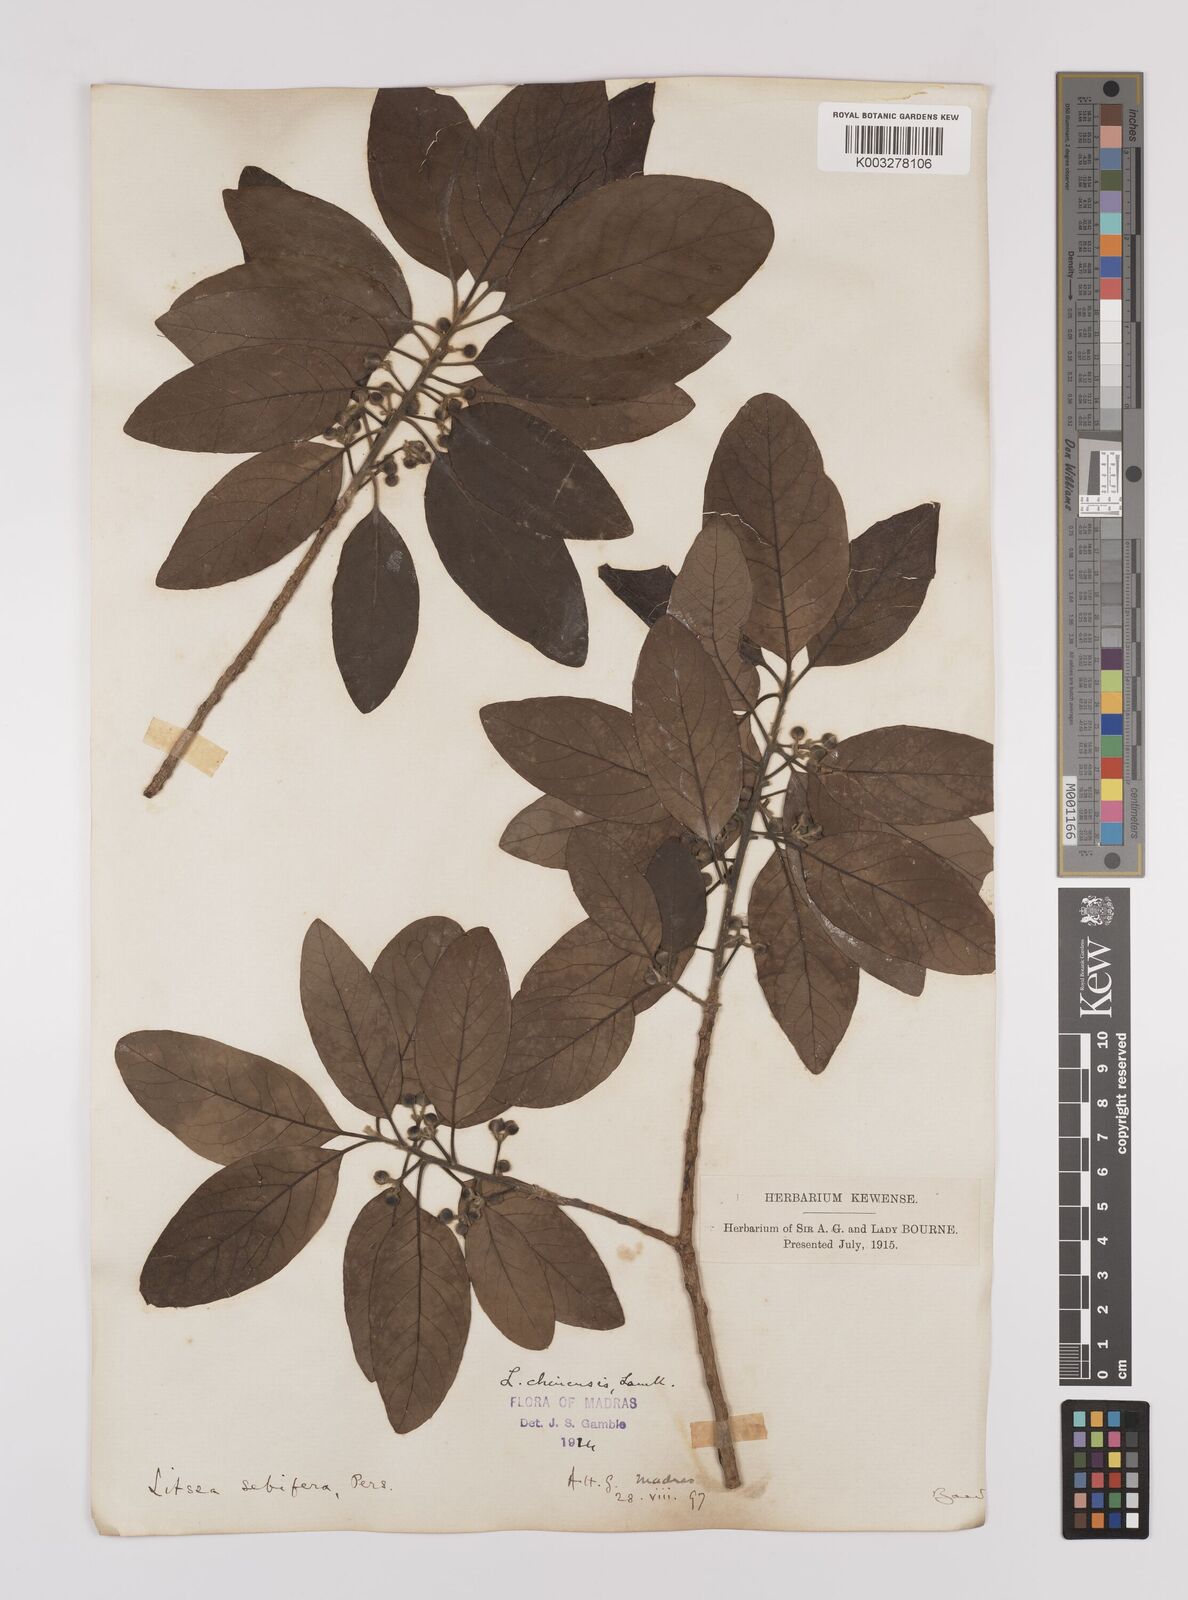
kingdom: Plantae
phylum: Tracheophyta
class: Magnoliopsida
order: Laurales
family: Lauraceae
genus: Litsea
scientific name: Litsea
